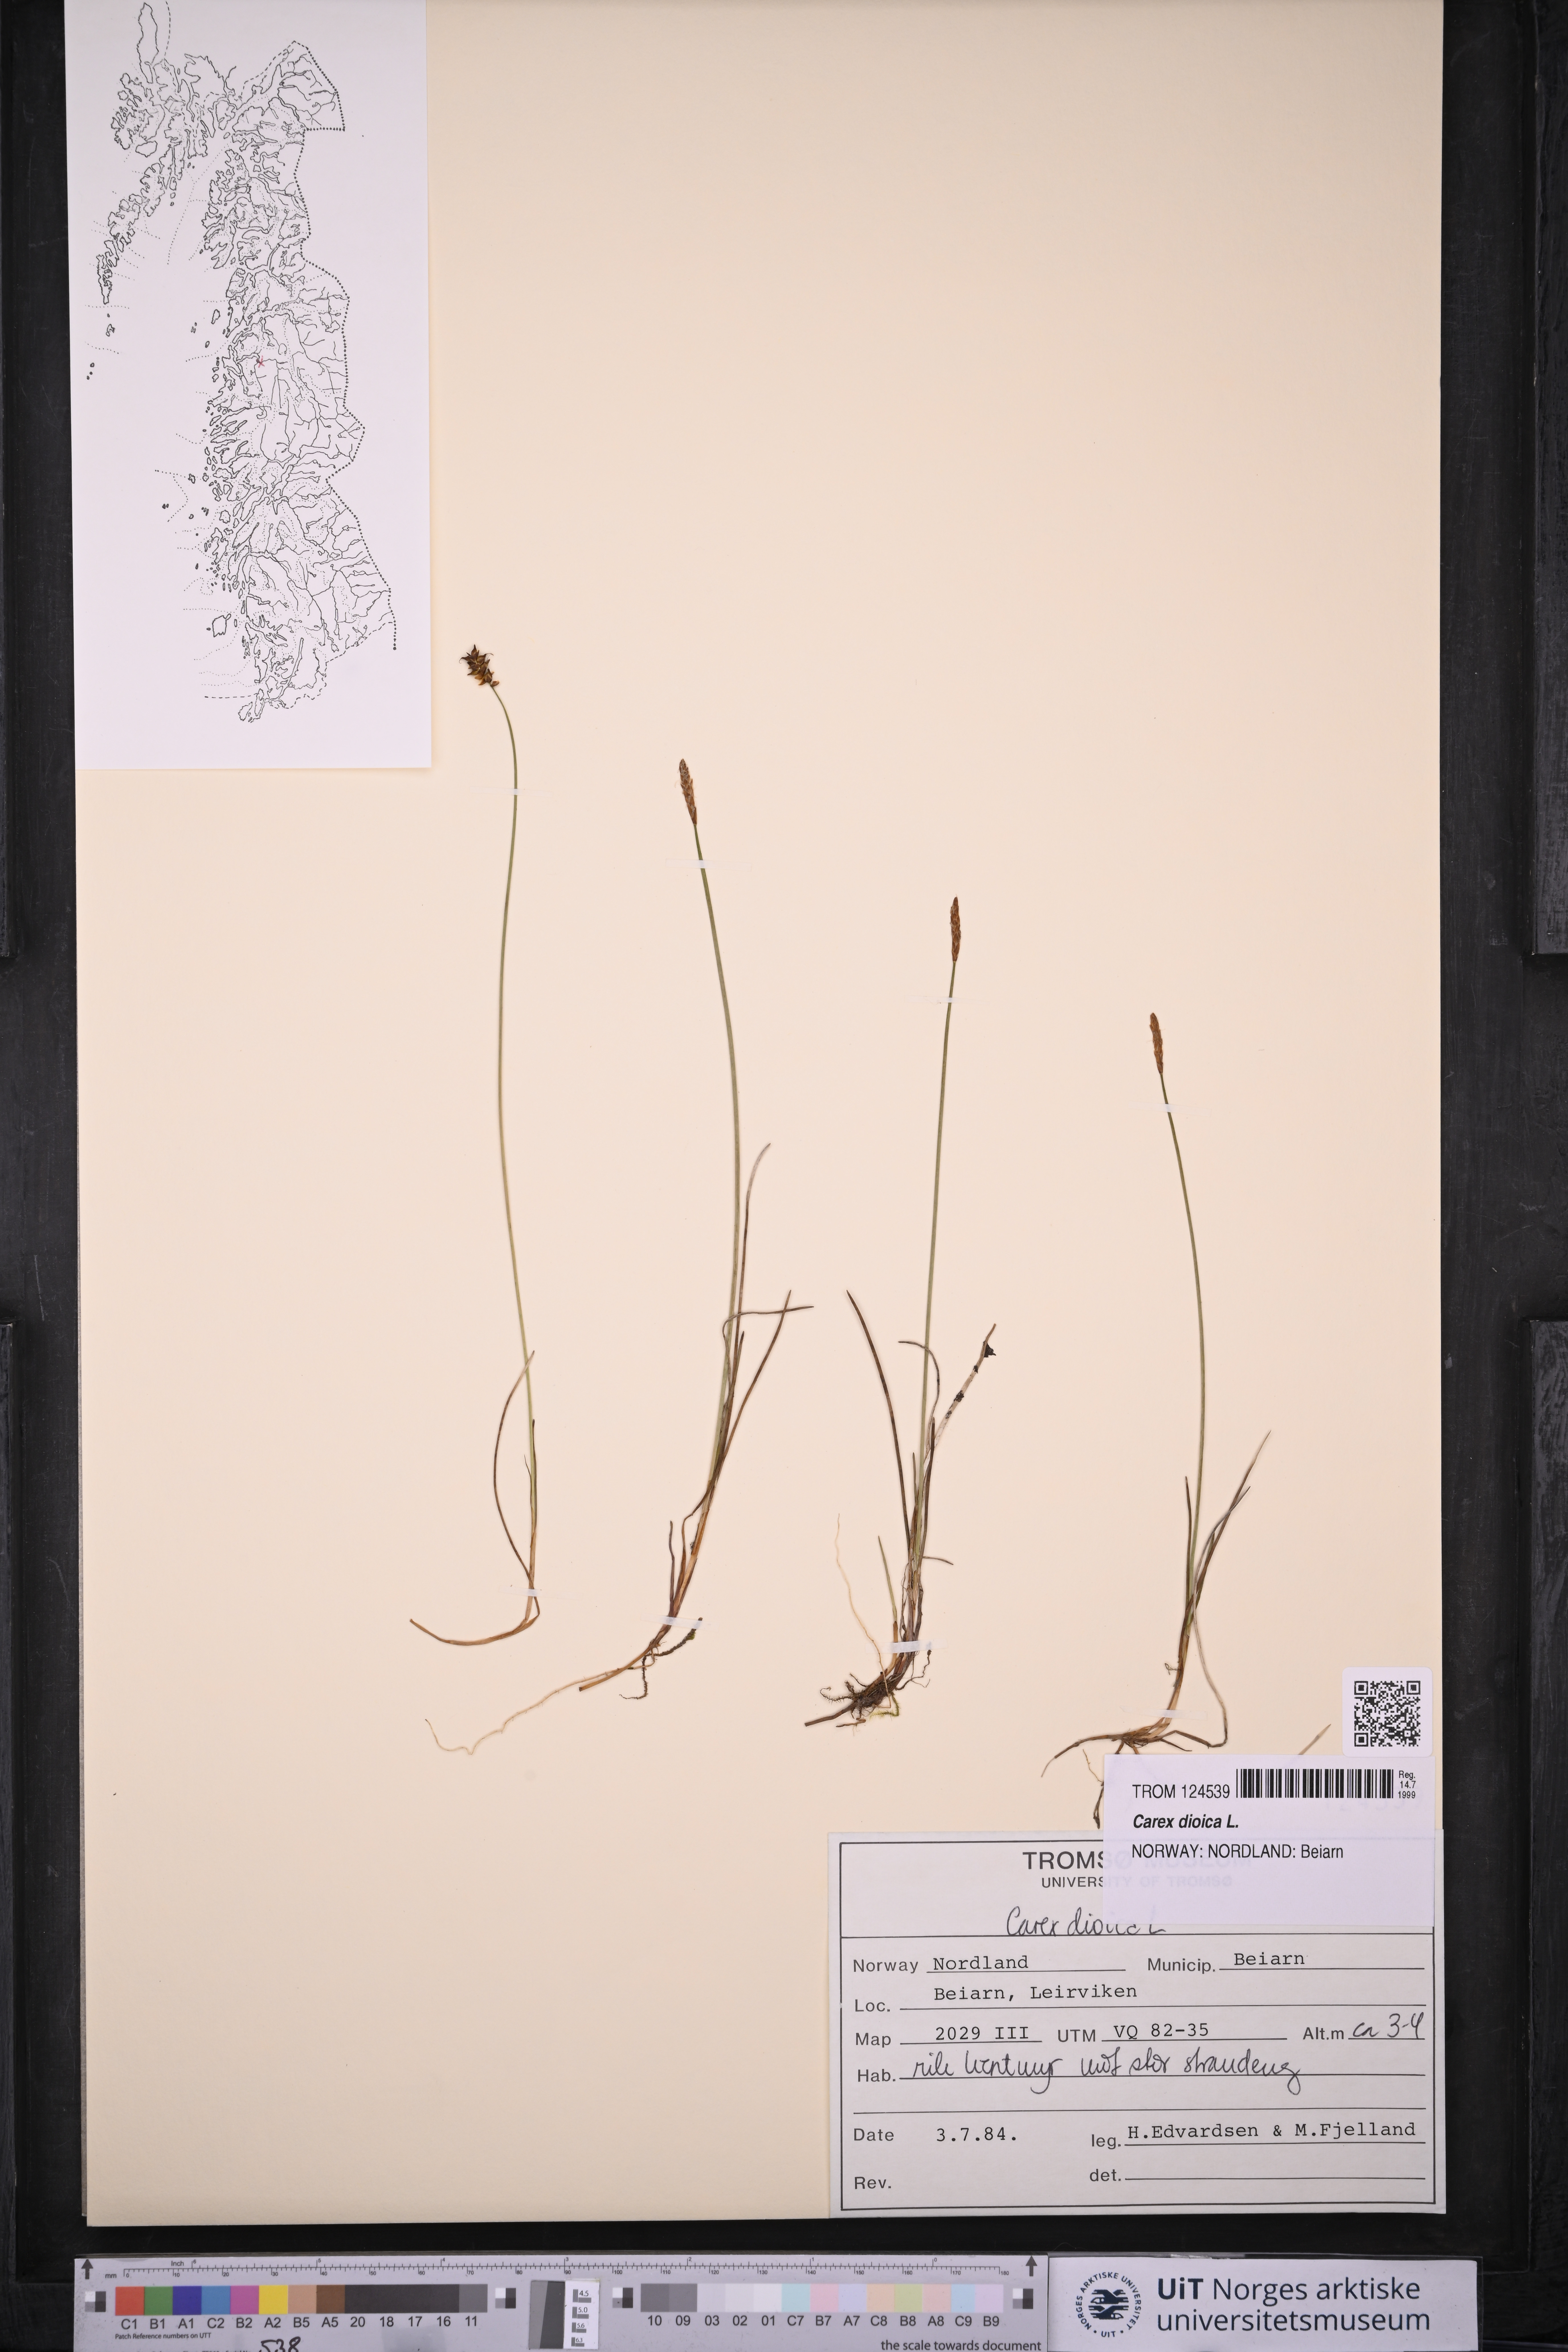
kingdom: Plantae
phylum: Tracheophyta
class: Liliopsida
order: Poales
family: Cyperaceae
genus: Carex
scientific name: Carex dioica
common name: Dioecious sedge
